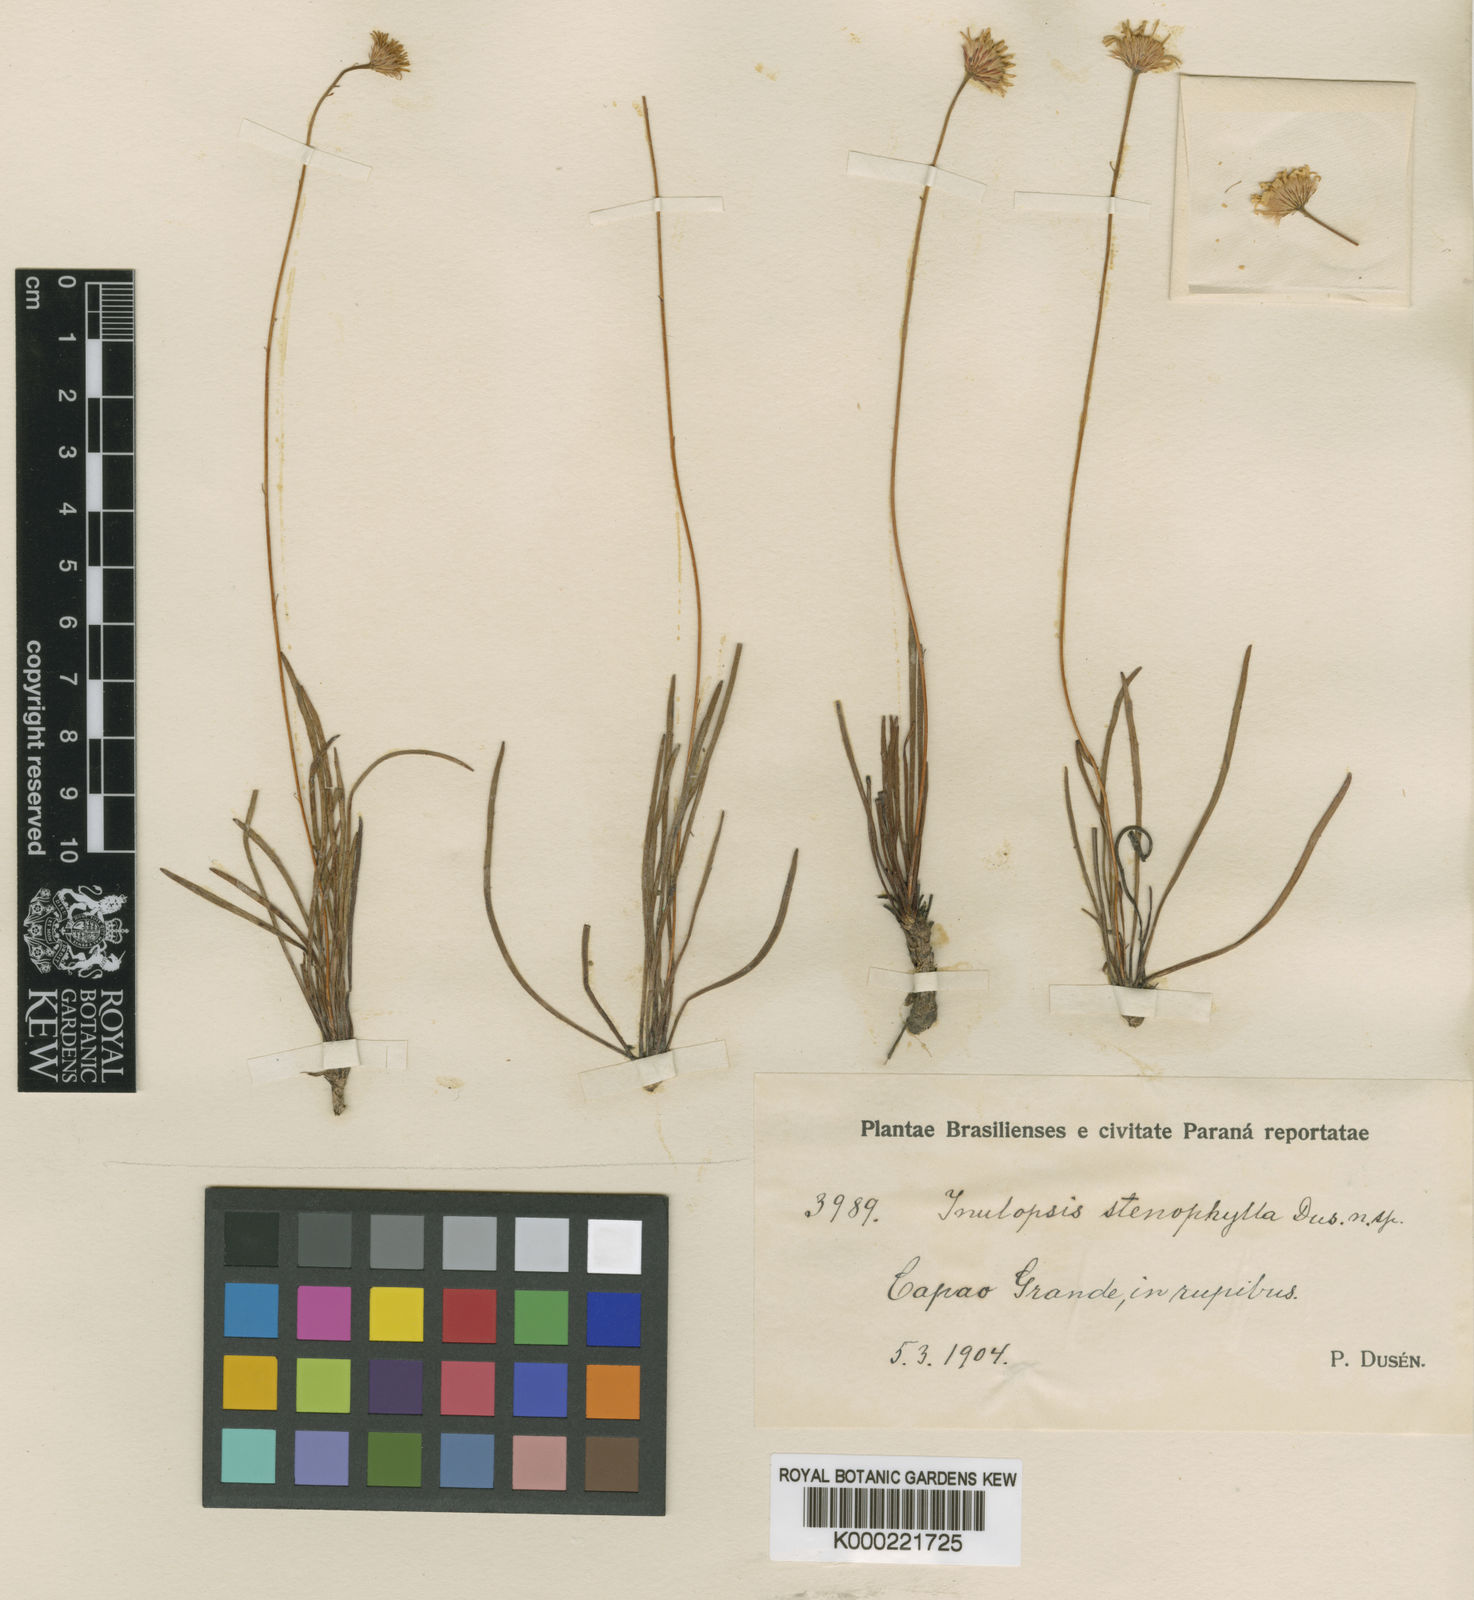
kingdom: Plantae
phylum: Tracheophyta
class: Magnoliopsida
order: Asterales
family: Asteraceae
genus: Inulopsis
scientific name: Inulopsis
